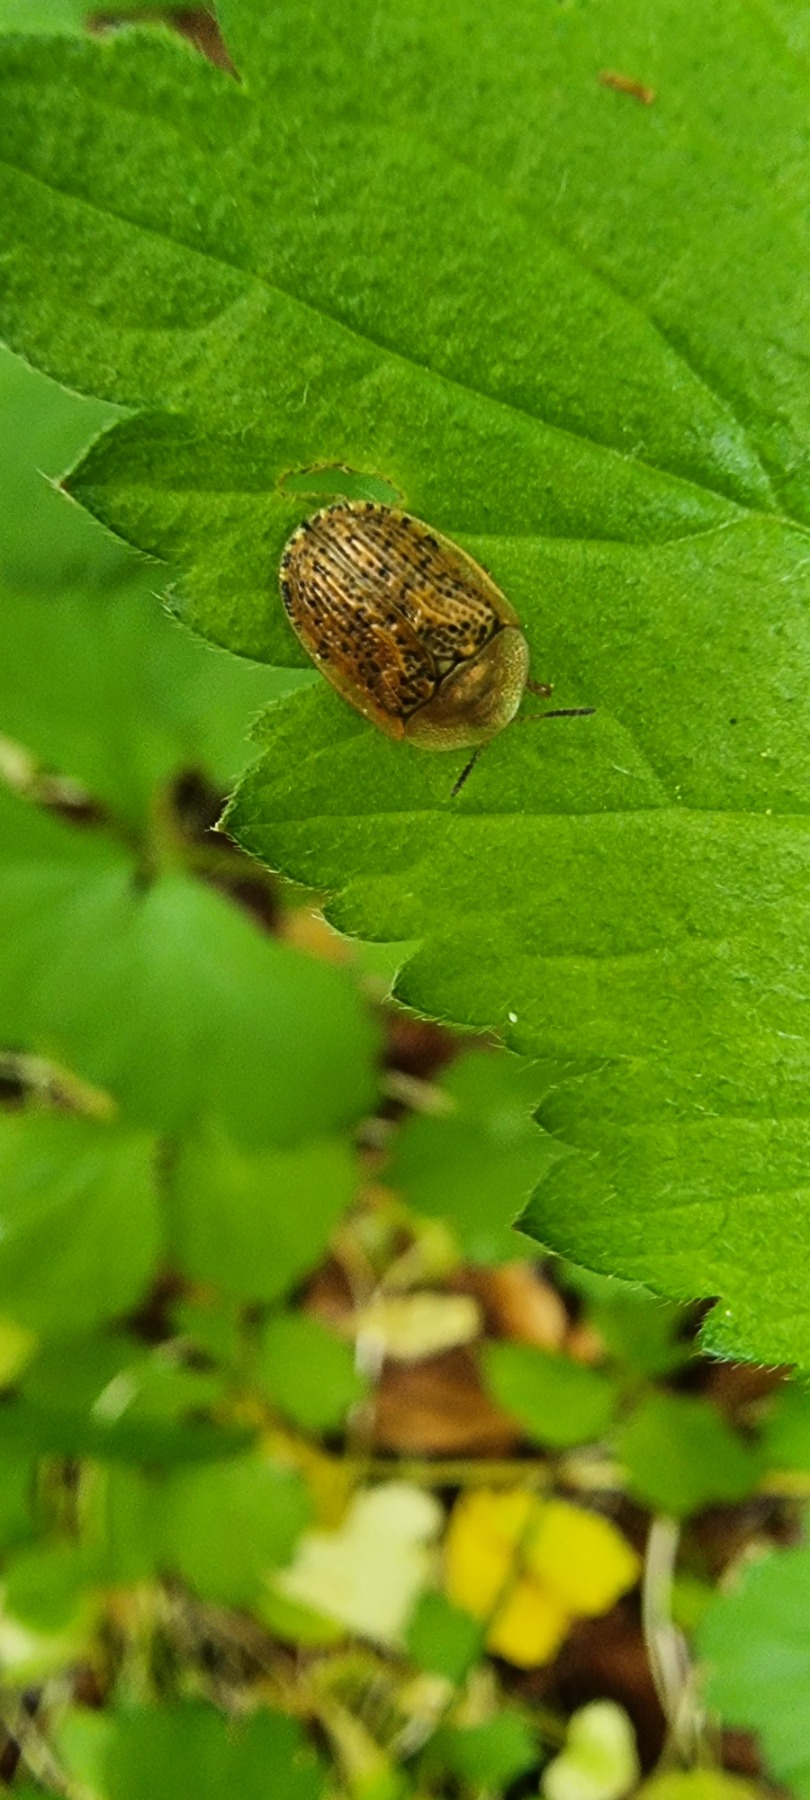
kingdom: Animalia
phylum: Arthropoda
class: Insecta
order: Coleoptera
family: Chrysomelidae
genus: Cassida
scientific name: Cassida nebulosa
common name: Plettet skjoldbille
